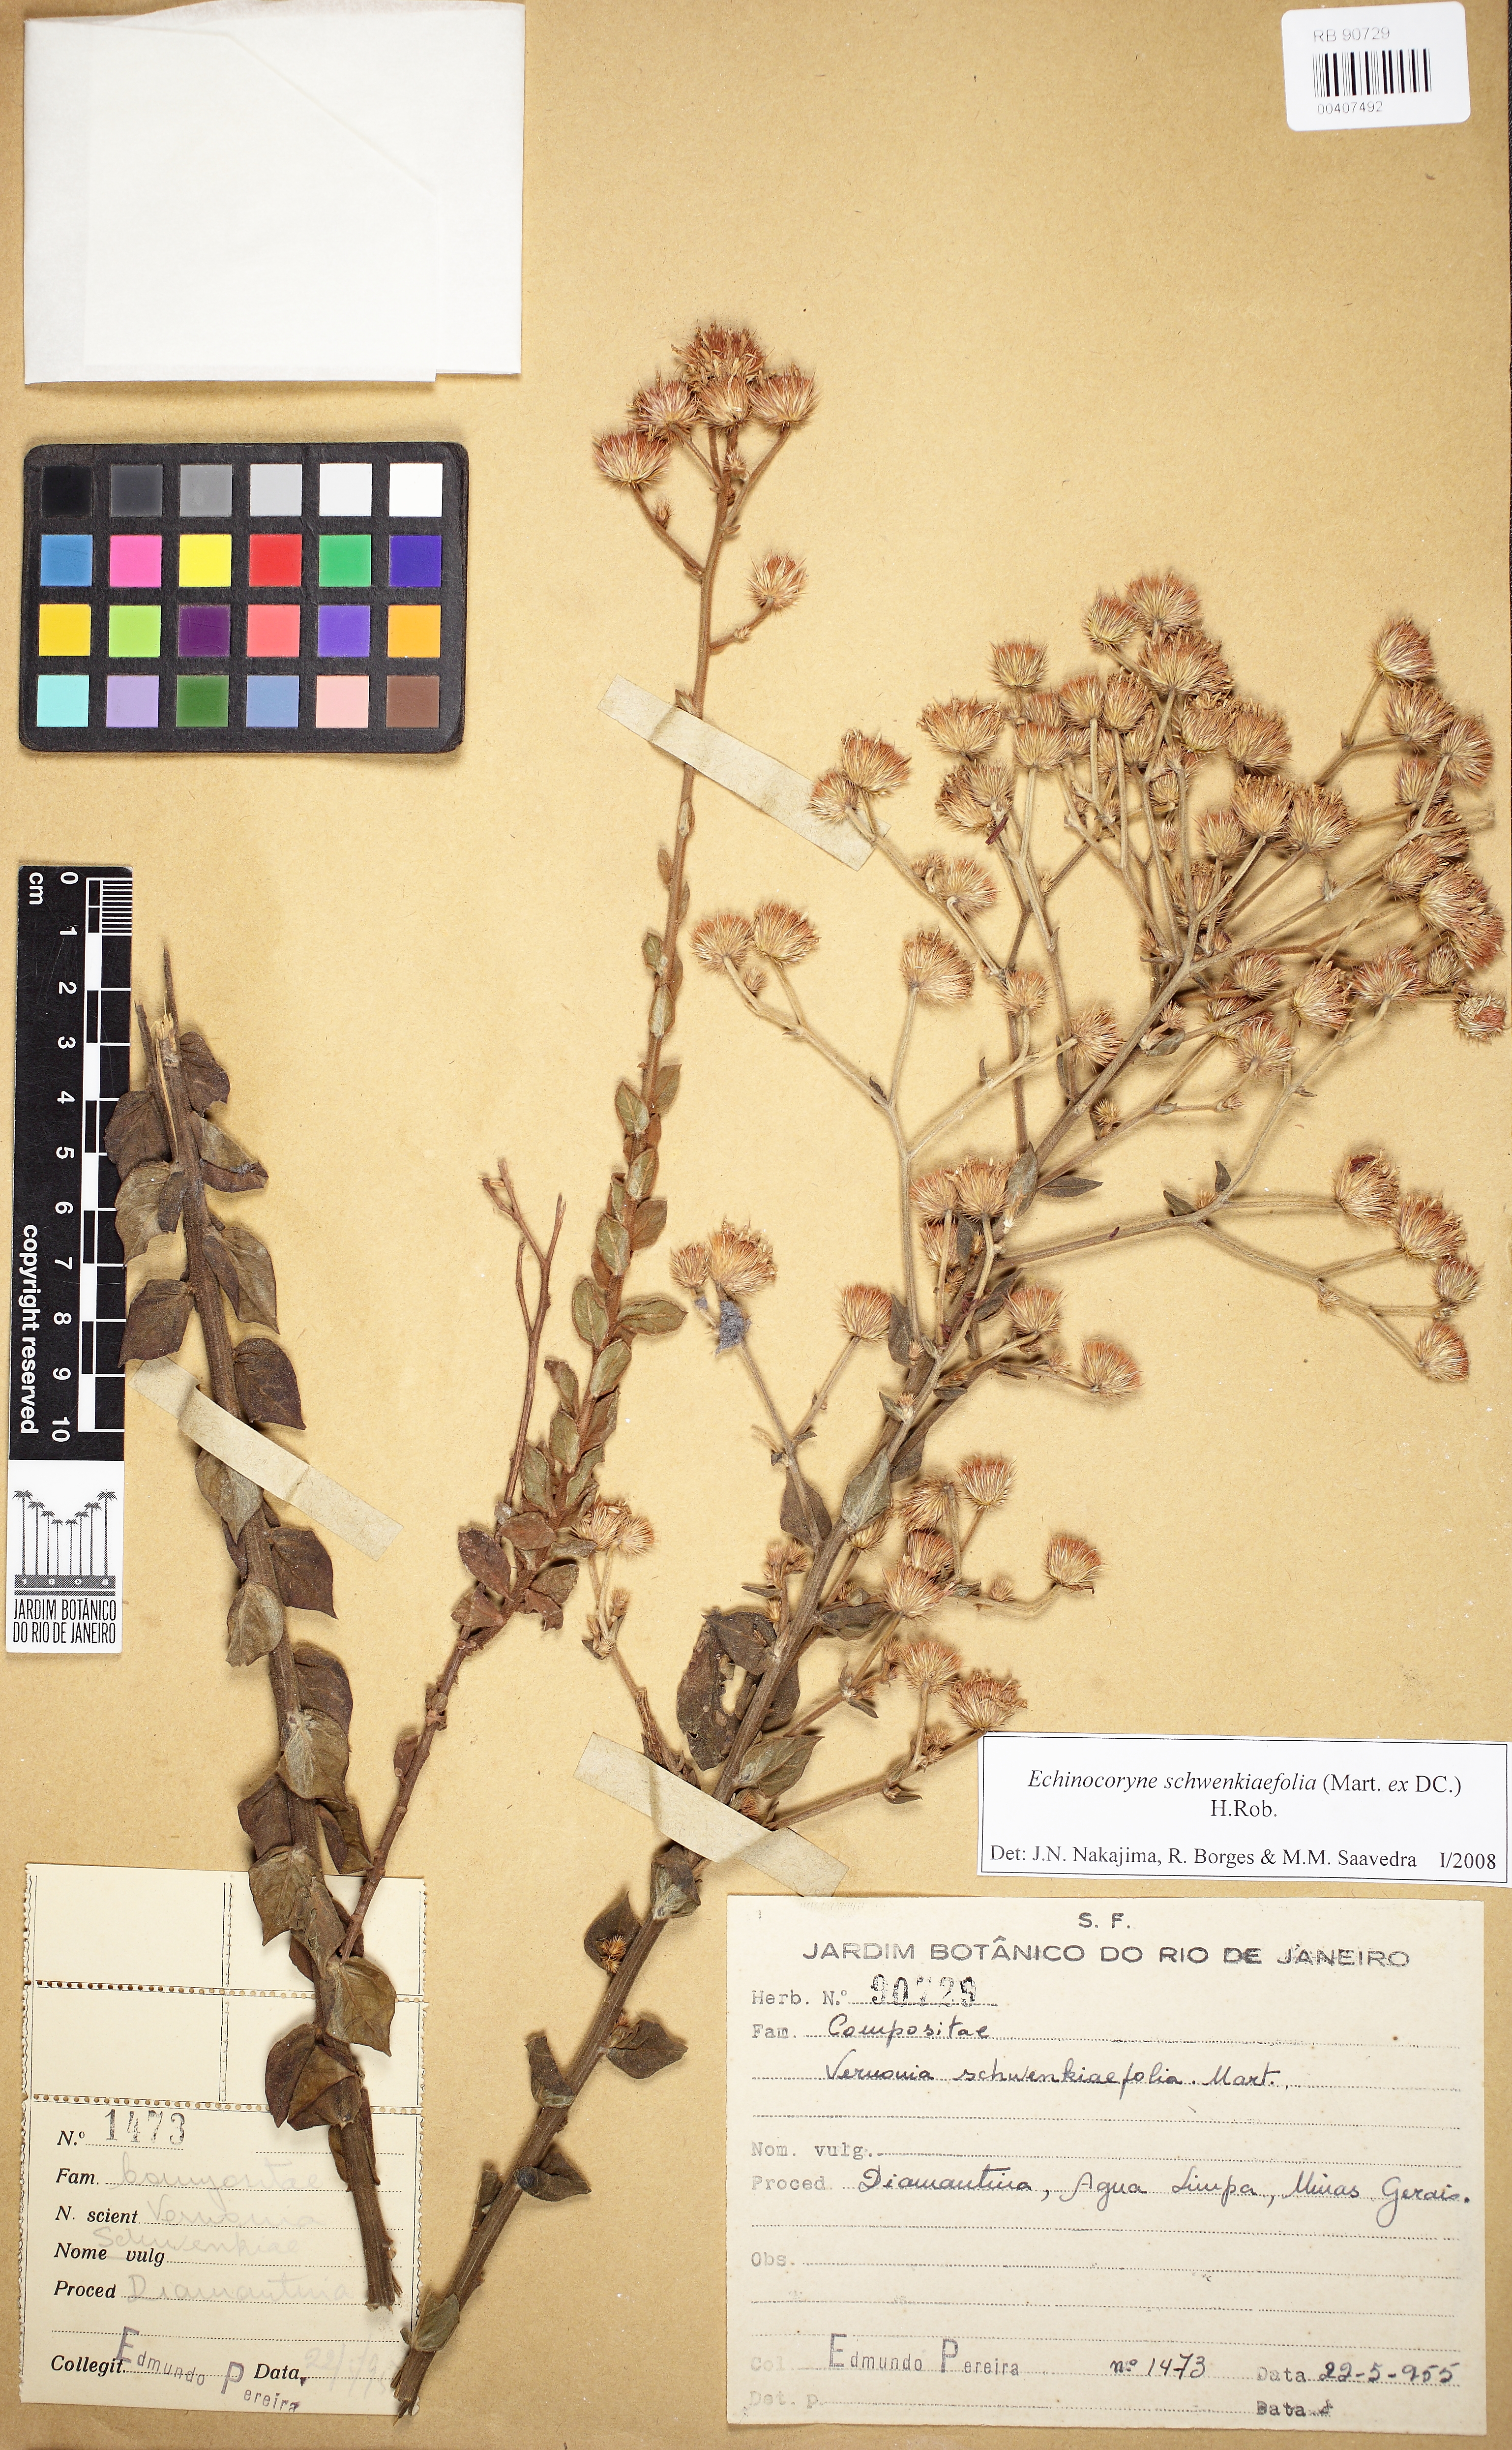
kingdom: Plantae
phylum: Tracheophyta
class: Magnoliopsida
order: Asterales
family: Asteraceae
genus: Echinocoryne
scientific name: Echinocoryne schwenkiaefolia
